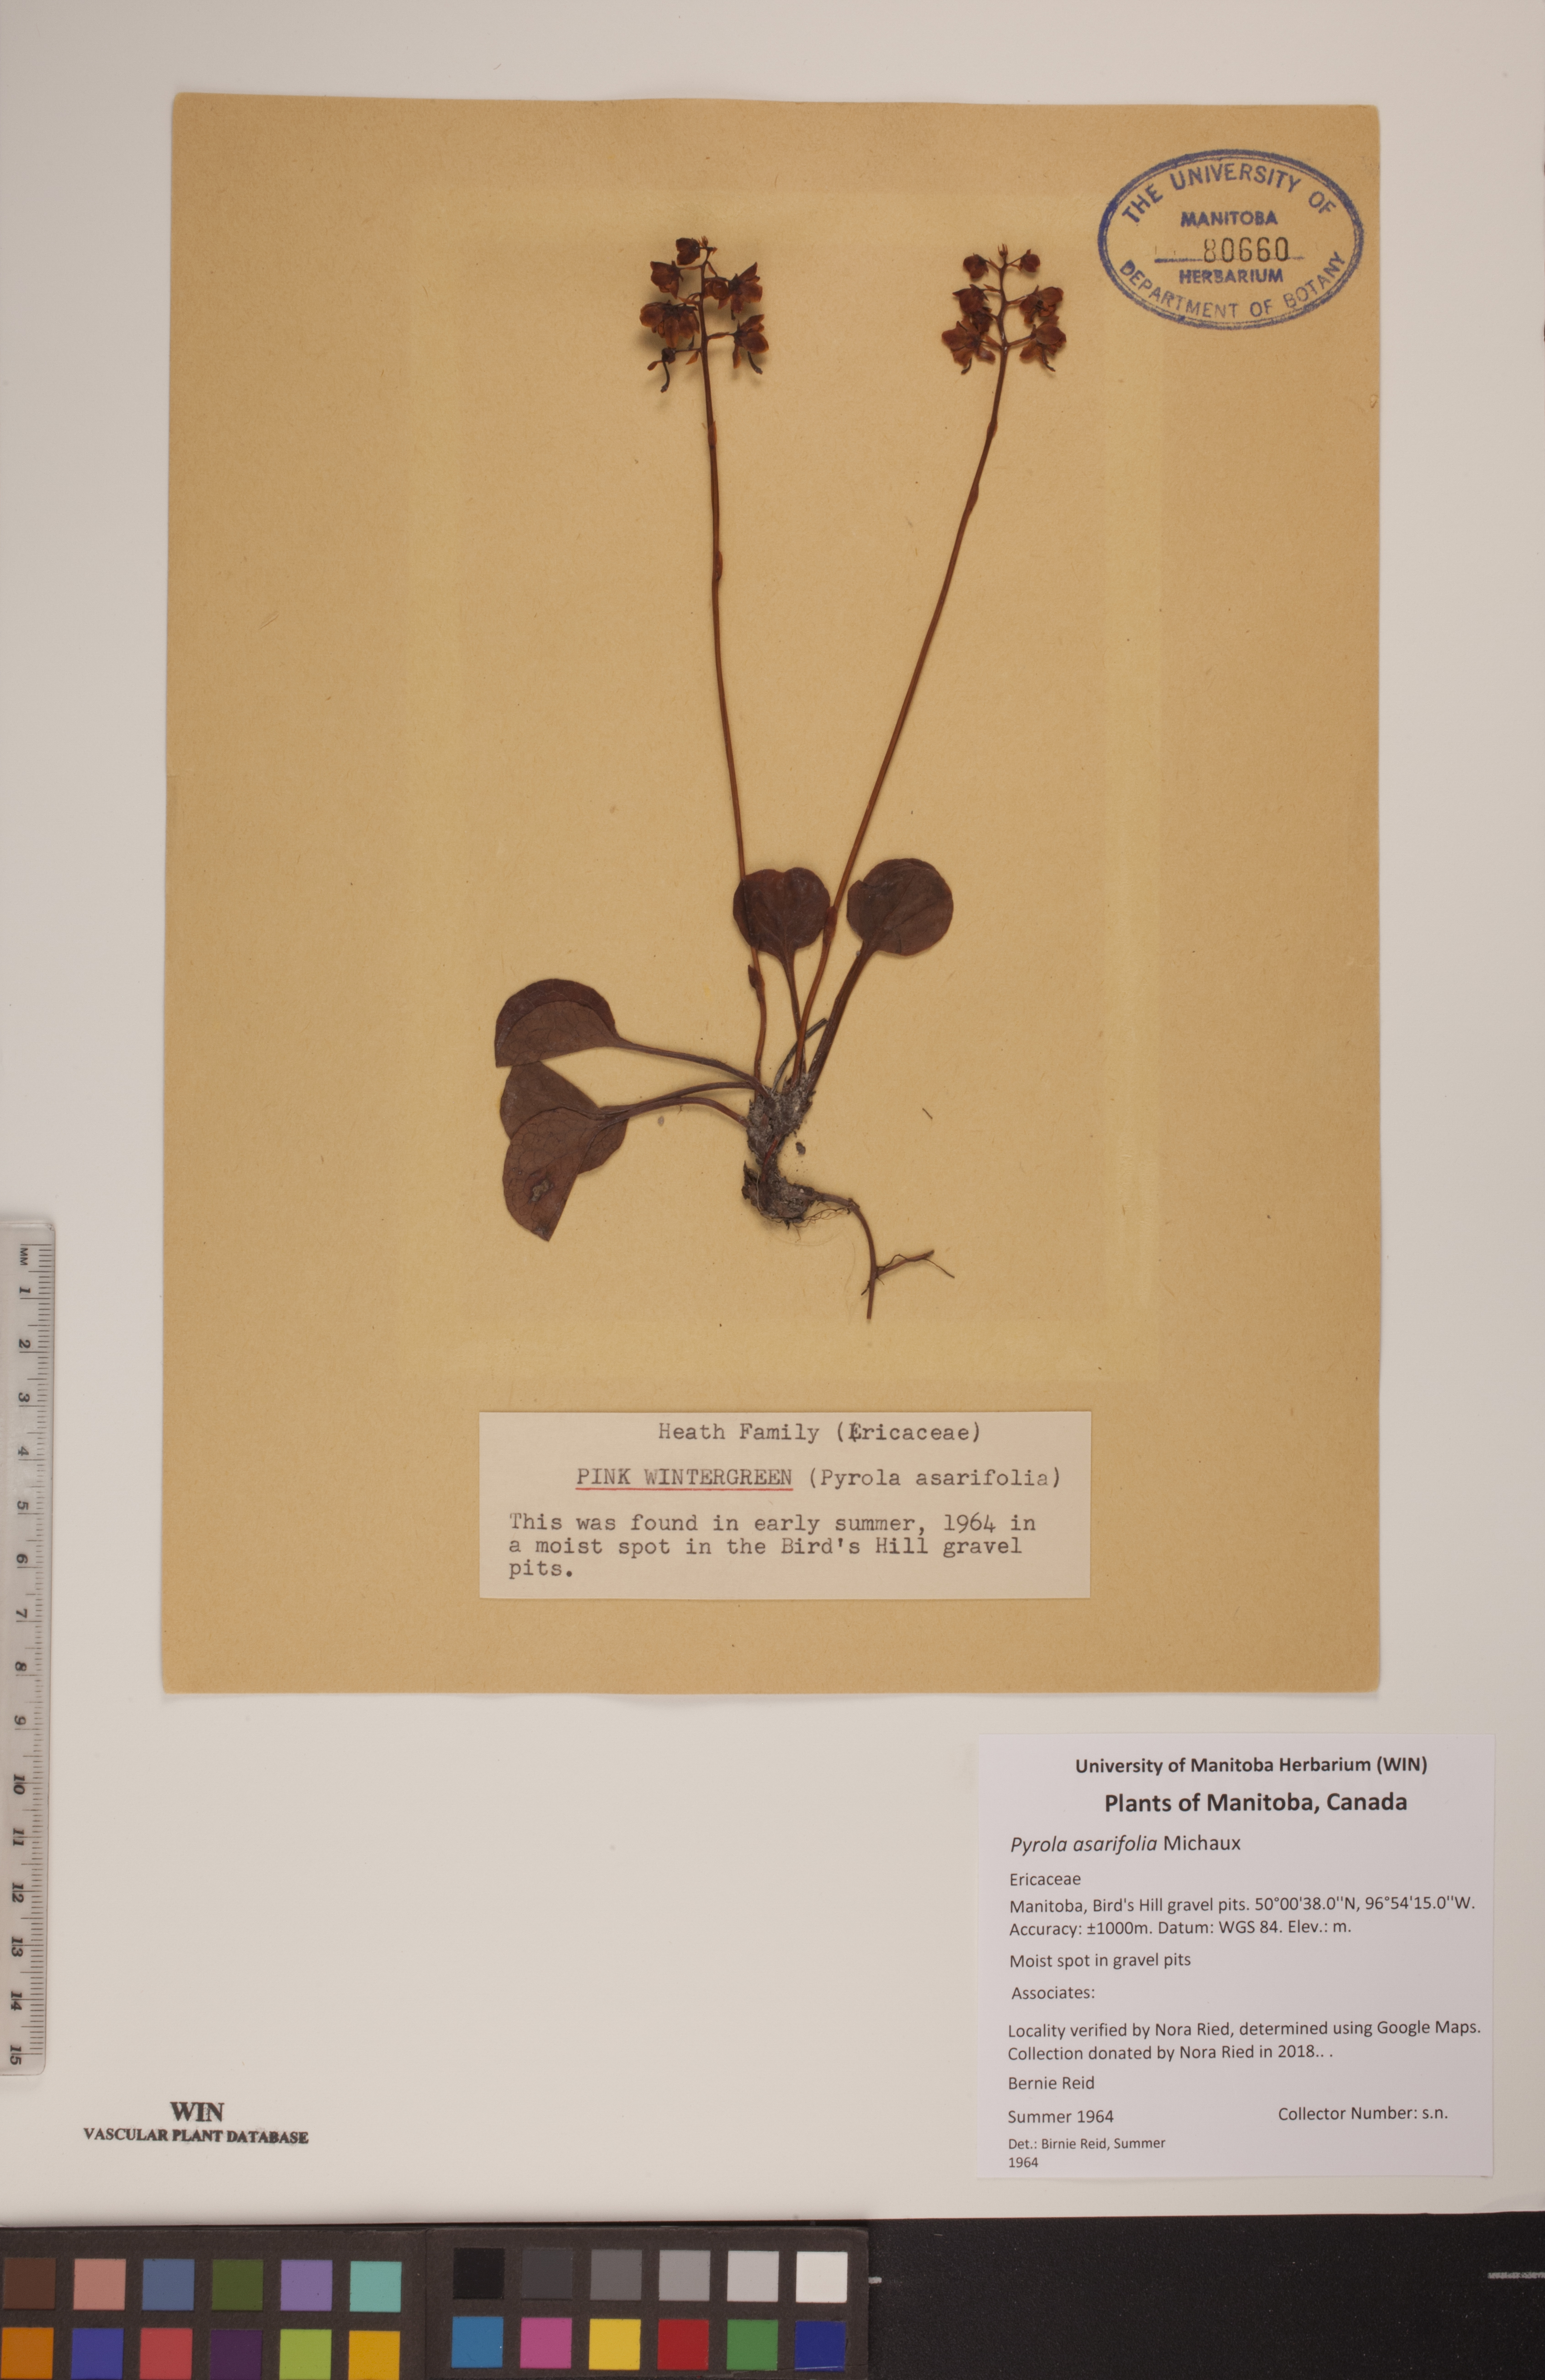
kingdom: Plantae
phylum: Tracheophyta
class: Magnoliopsida
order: Ericales
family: Ericaceae
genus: Pyrola
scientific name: Pyrola asarifolia
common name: Bog wintergreen
